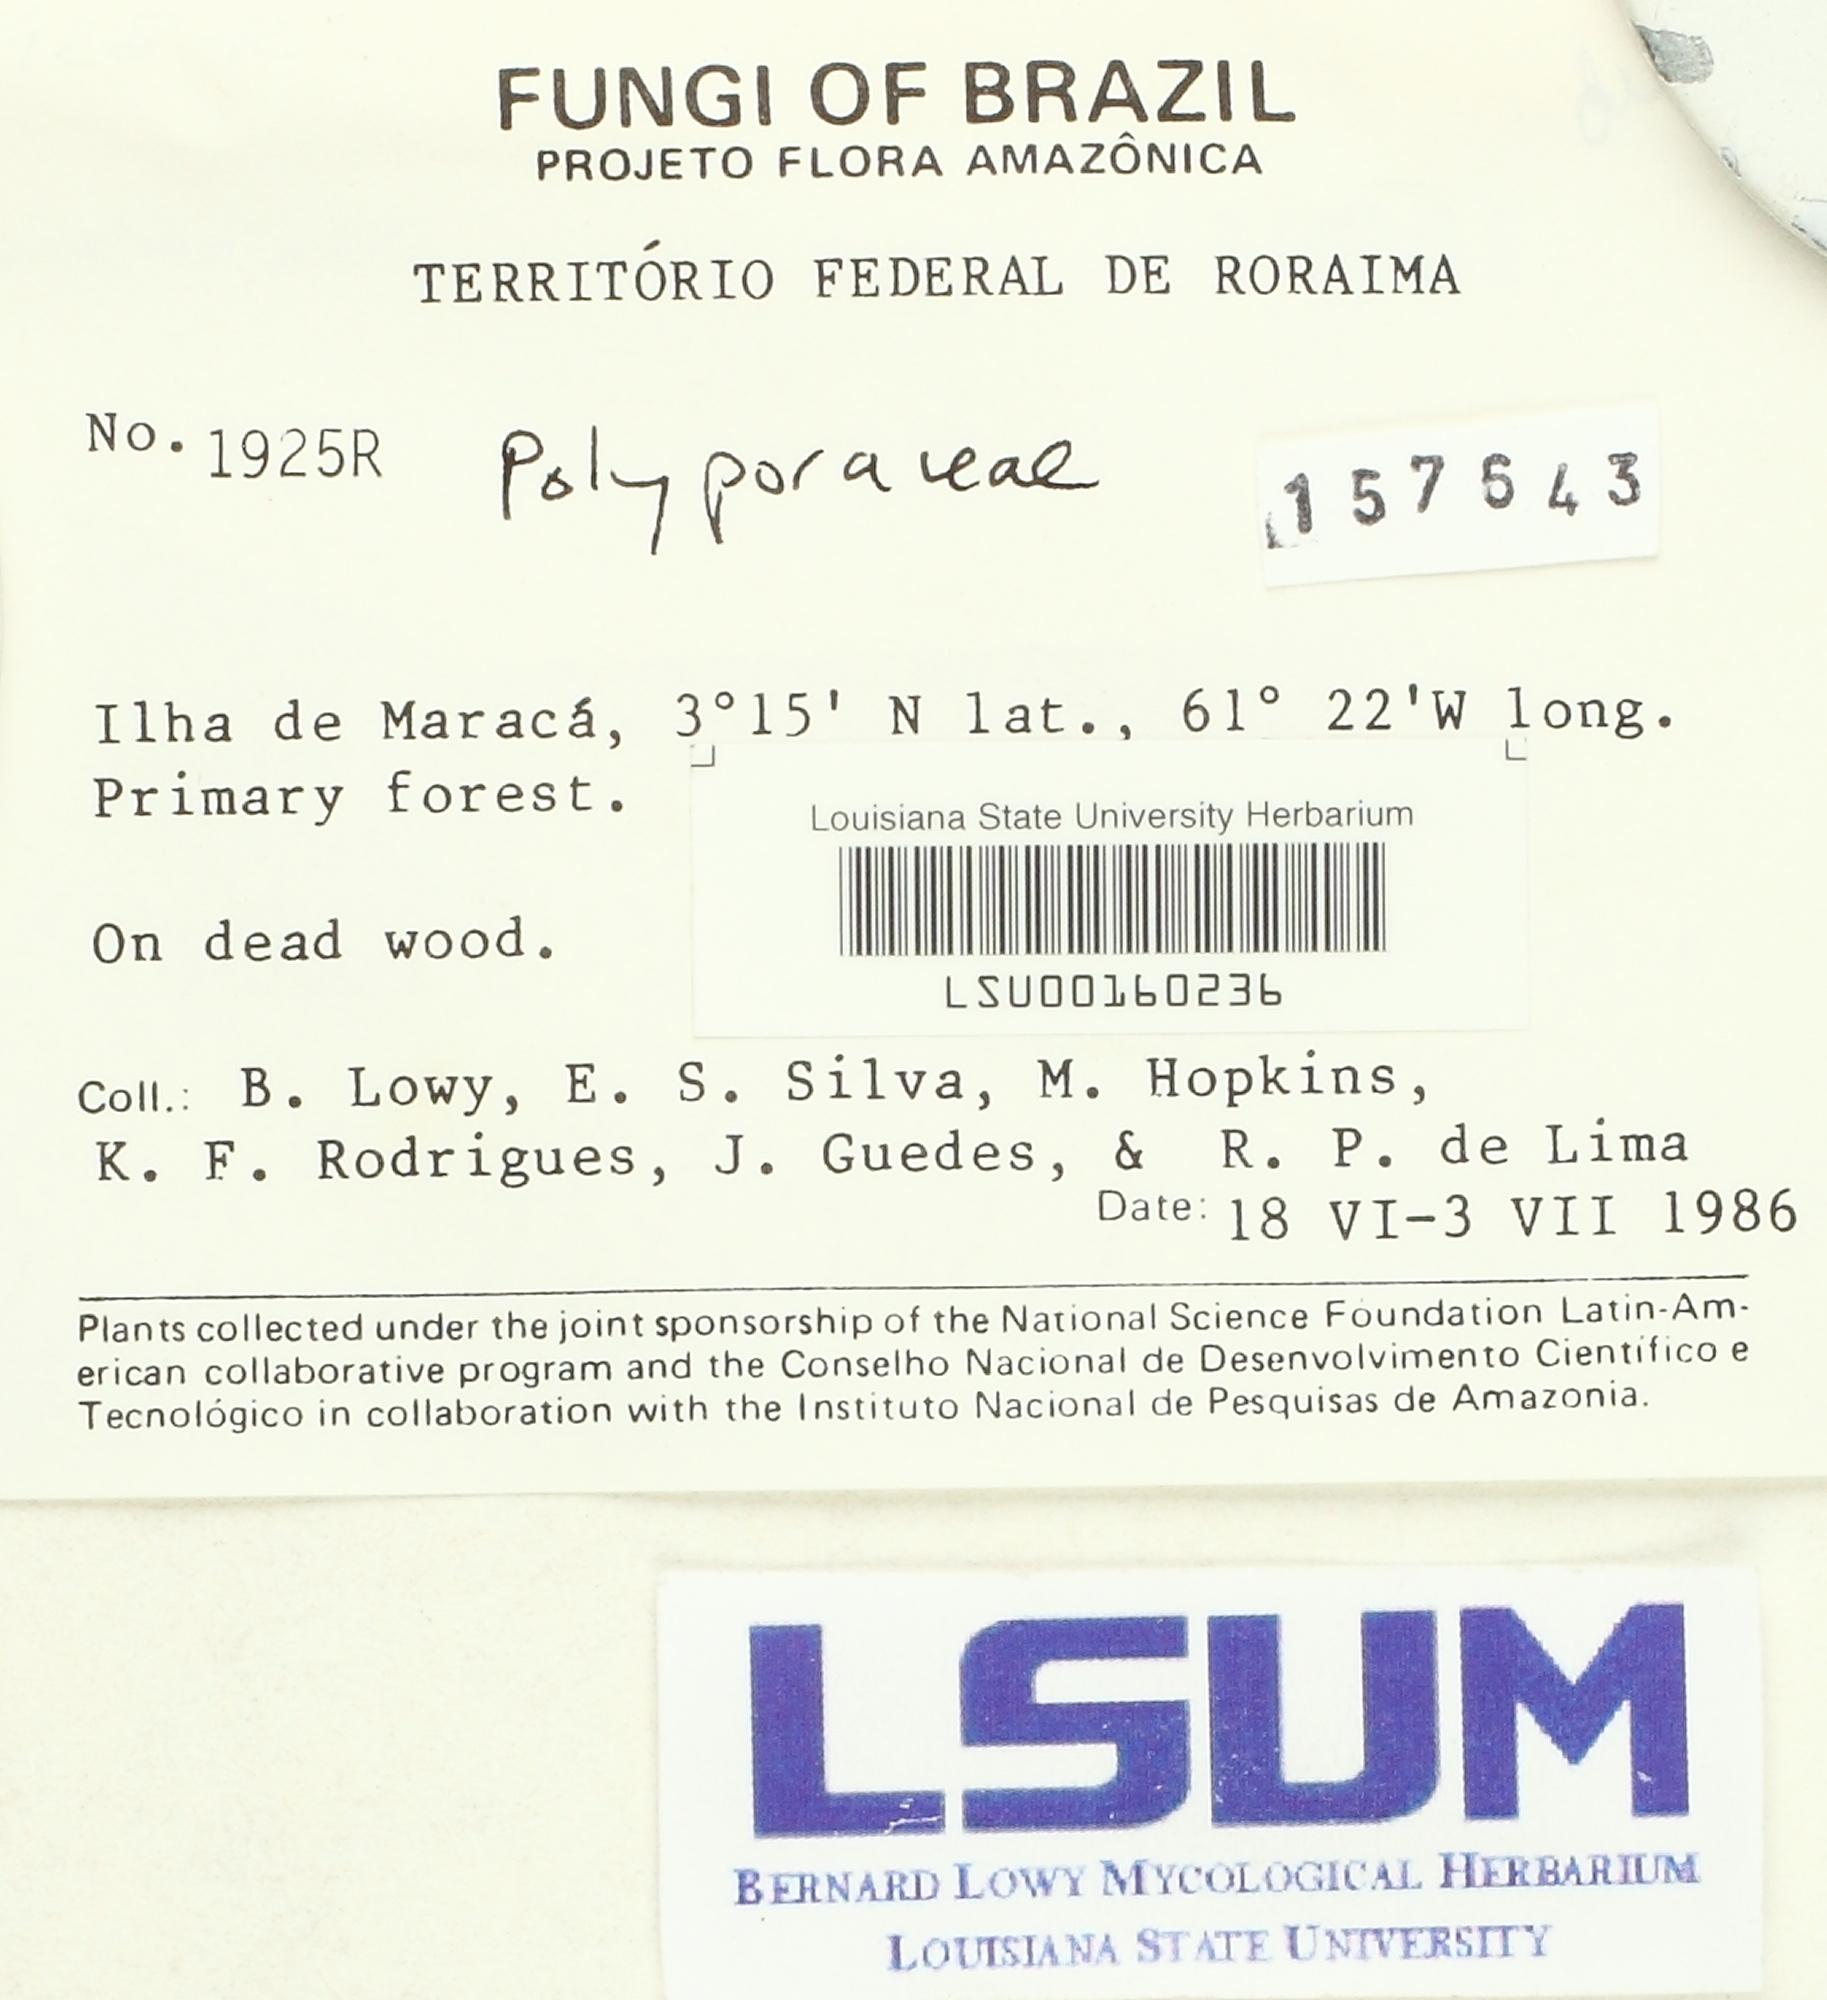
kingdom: Fungi
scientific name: Fungi
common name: Fungi
